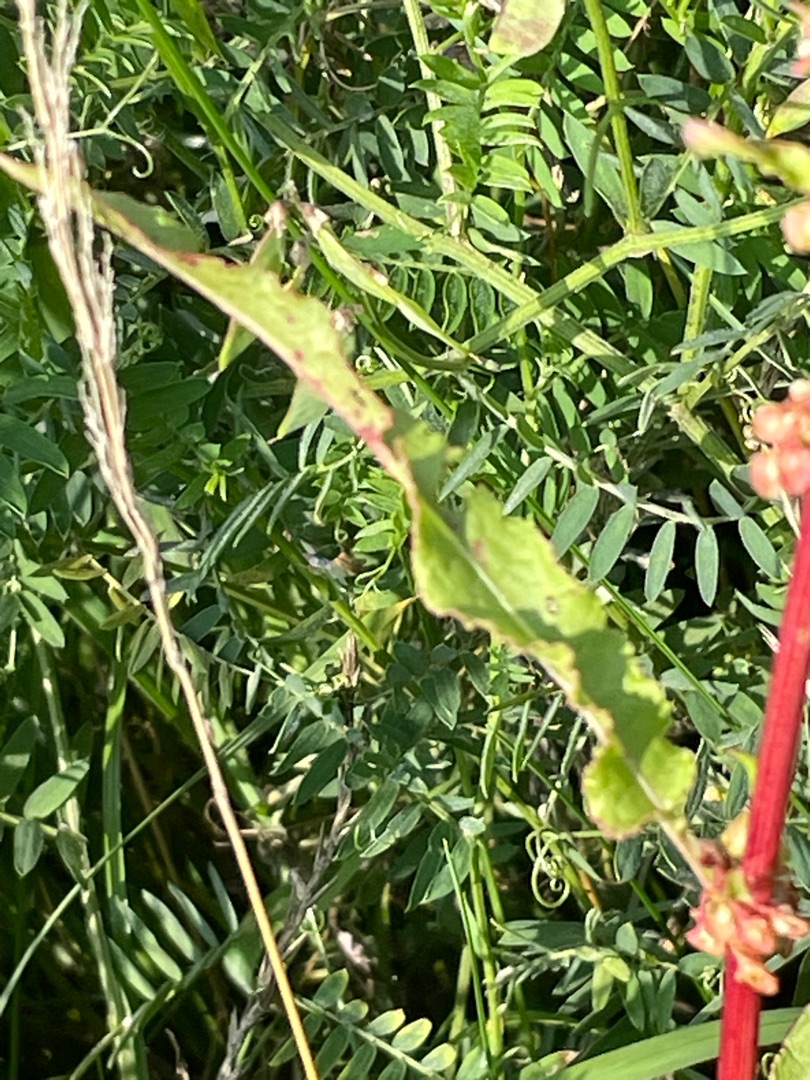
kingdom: Plantae
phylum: Tracheophyta
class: Magnoliopsida
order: Caryophyllales
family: Polygonaceae
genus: Rumex
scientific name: Rumex crispus
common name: Kruset skræppe
